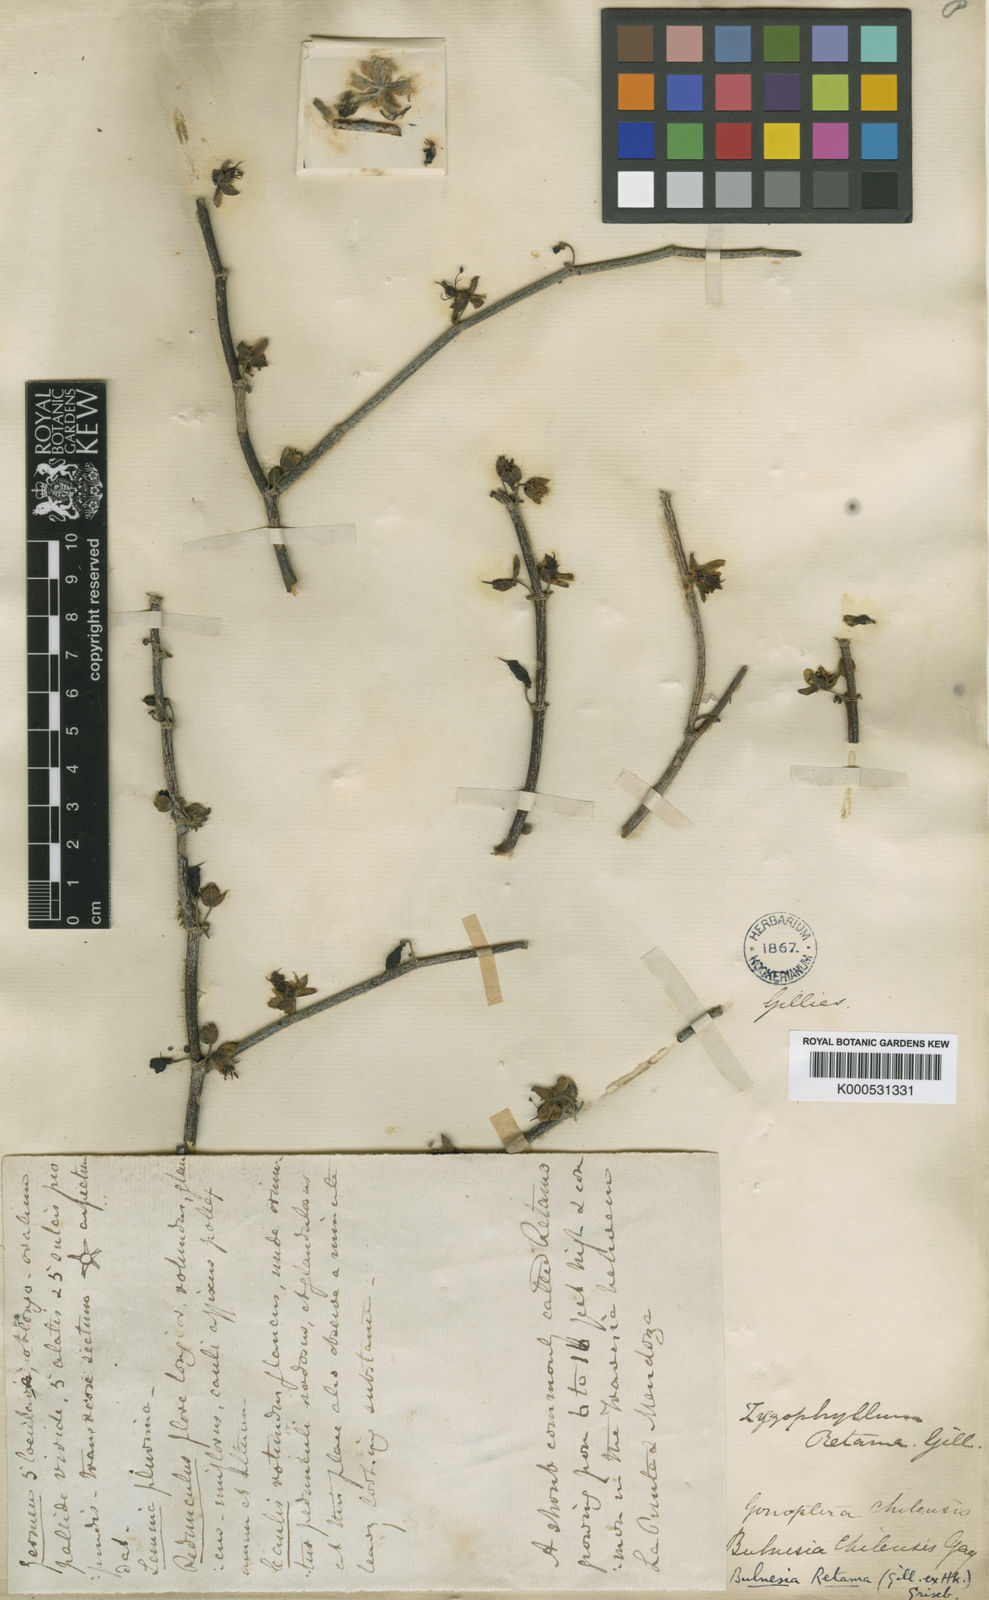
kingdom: Plantae
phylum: Tracheophyta
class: Magnoliopsida
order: Zygophyllales
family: Zygophyllaceae
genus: Bulnesia
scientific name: Bulnesia retama
